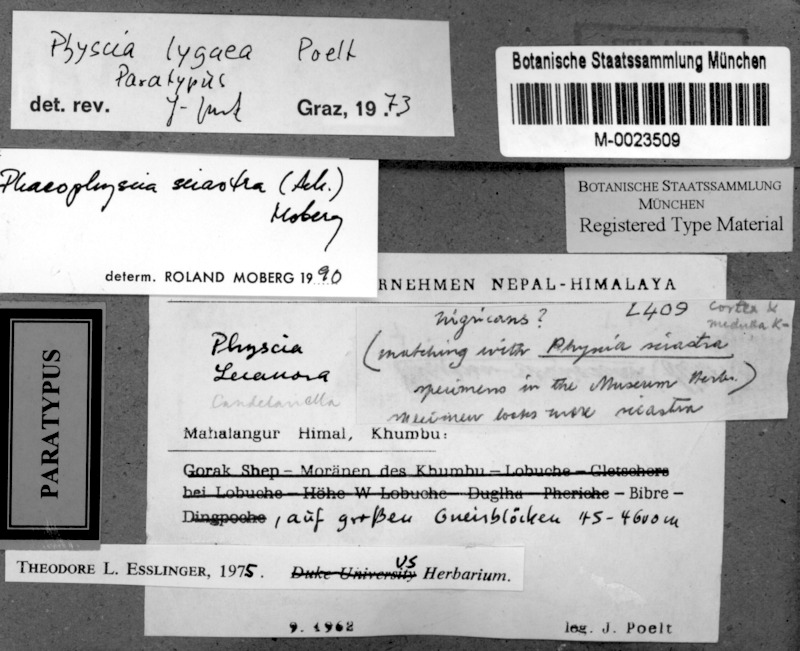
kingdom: Fungi
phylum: Ascomycota
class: Lecanoromycetes
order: Caliciales
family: Physciaceae
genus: Phaeophyscia
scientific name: Phaeophyscia sciastra
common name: Dark shadow lichen
